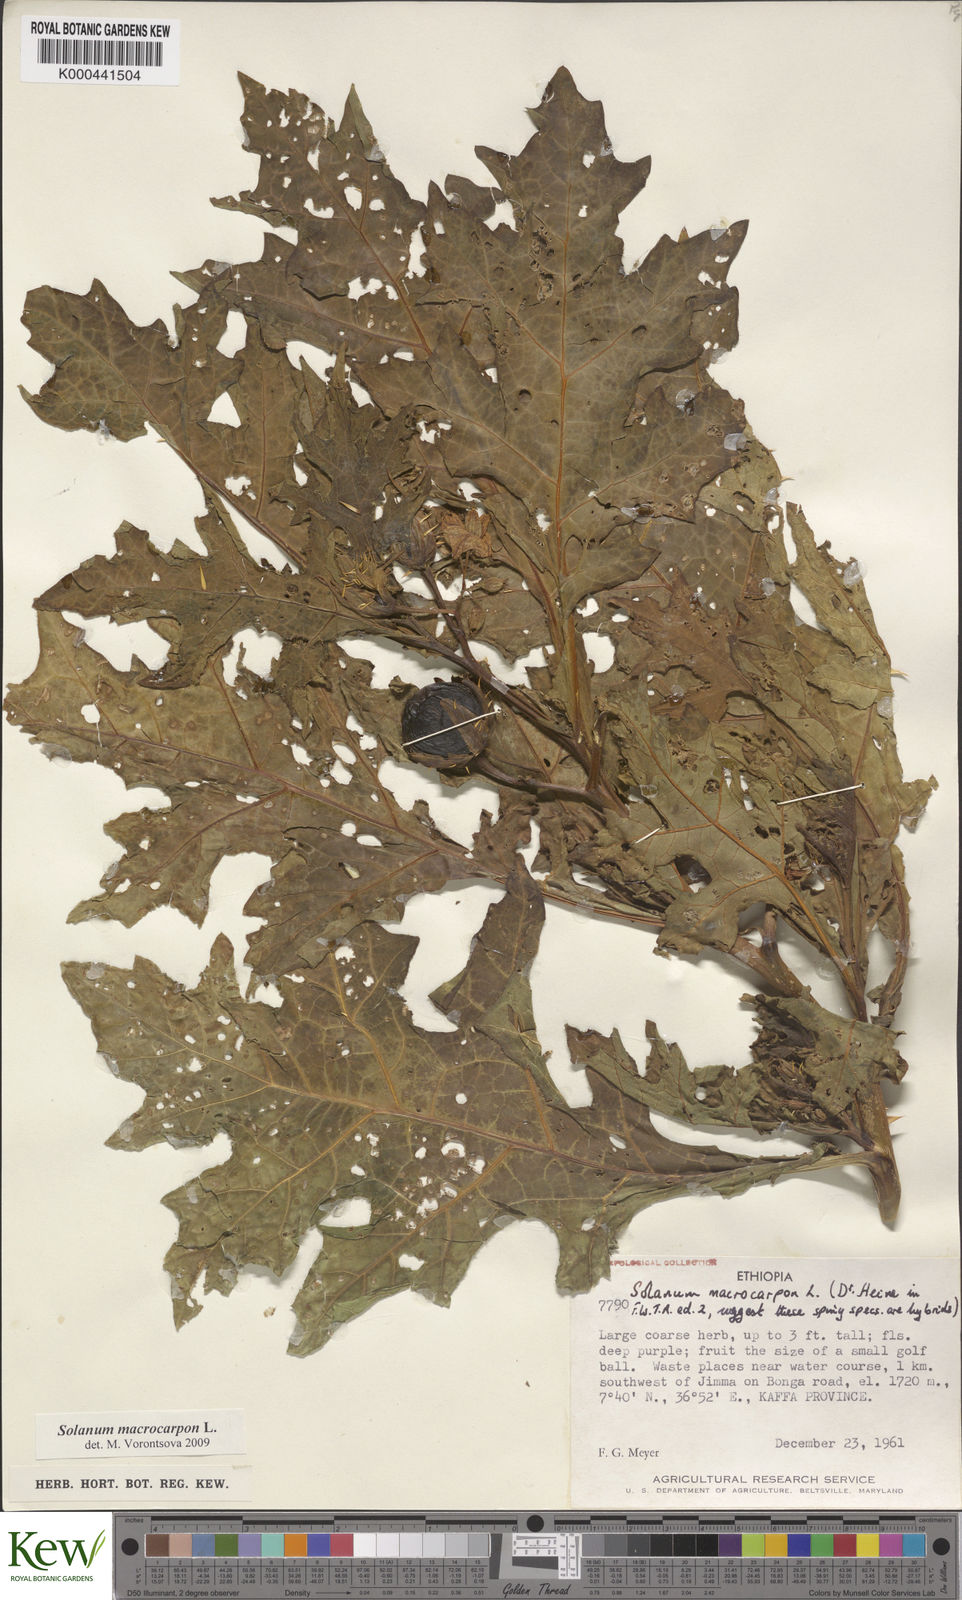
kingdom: Plantae
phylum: Tracheophyta
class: Magnoliopsida
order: Solanales
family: Solanaceae
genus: Solanum
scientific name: Solanum macrocarpon
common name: African eggplant
